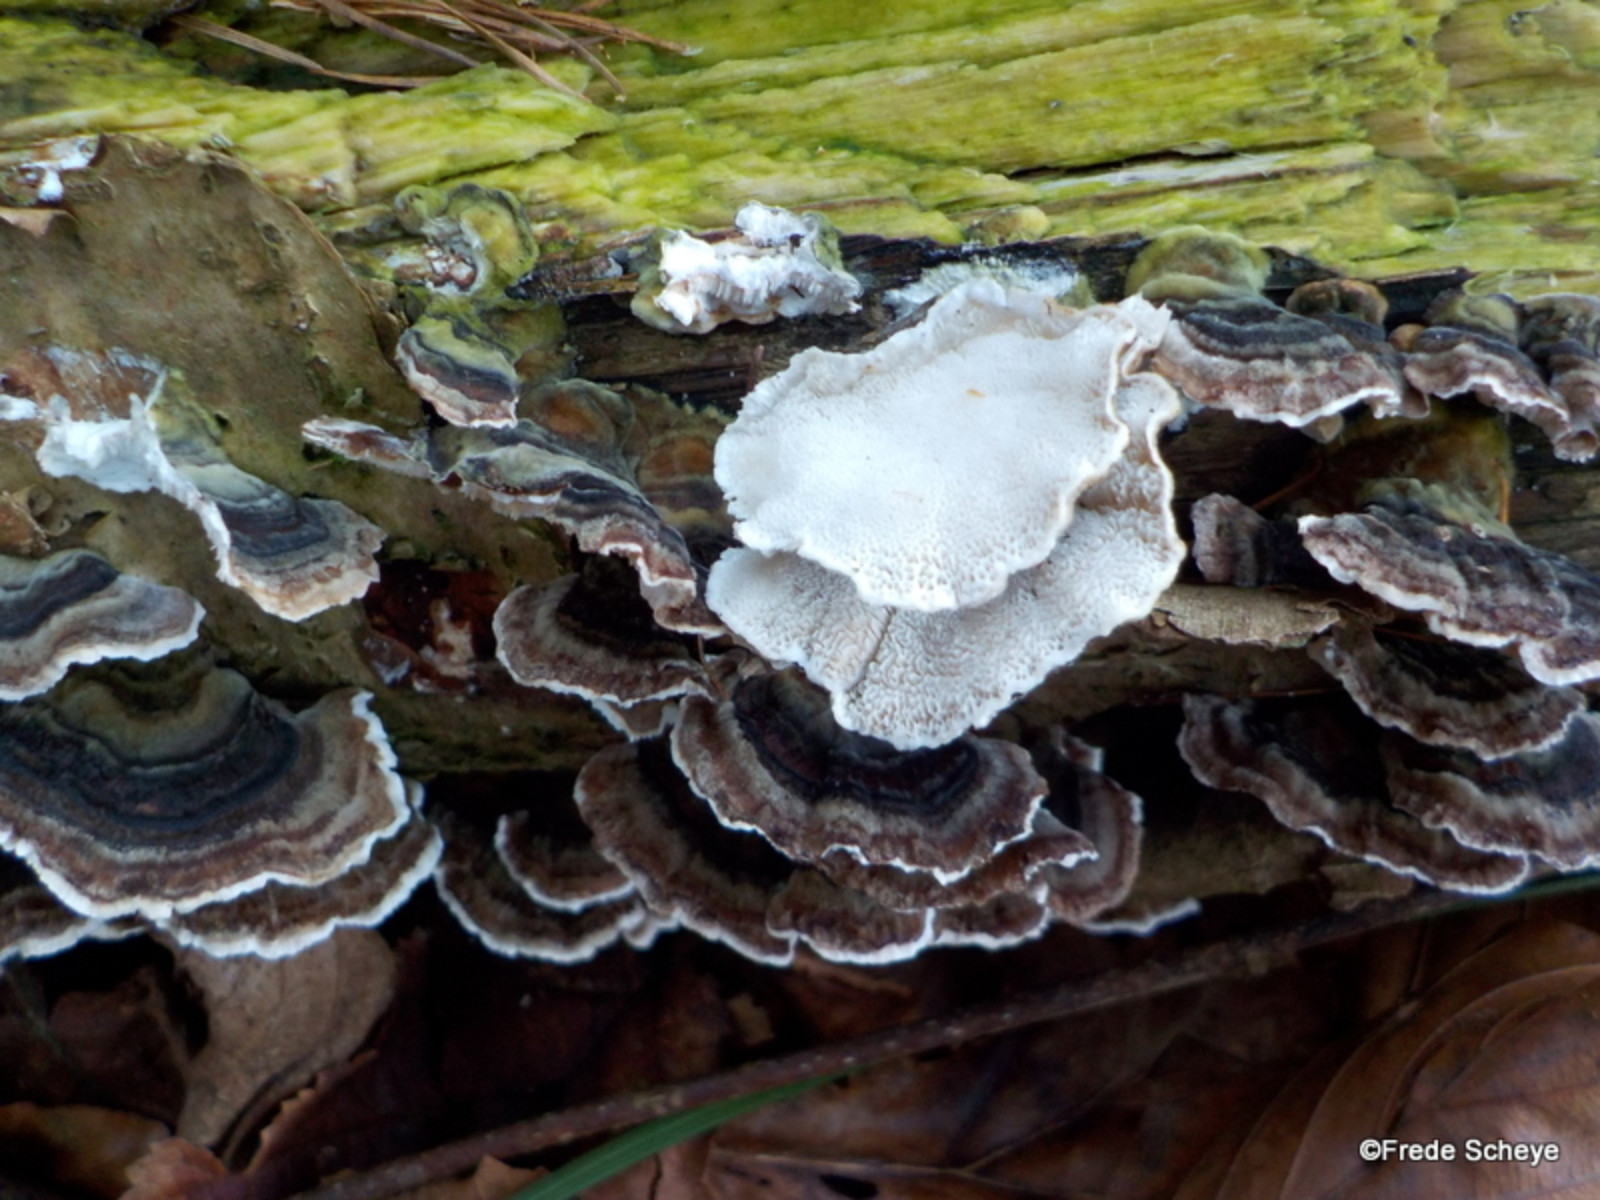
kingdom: Fungi
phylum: Basidiomycota
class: Agaricomycetes
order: Polyporales
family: Polyporaceae
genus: Trametes
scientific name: Trametes versicolor
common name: broget læderporesvamp
